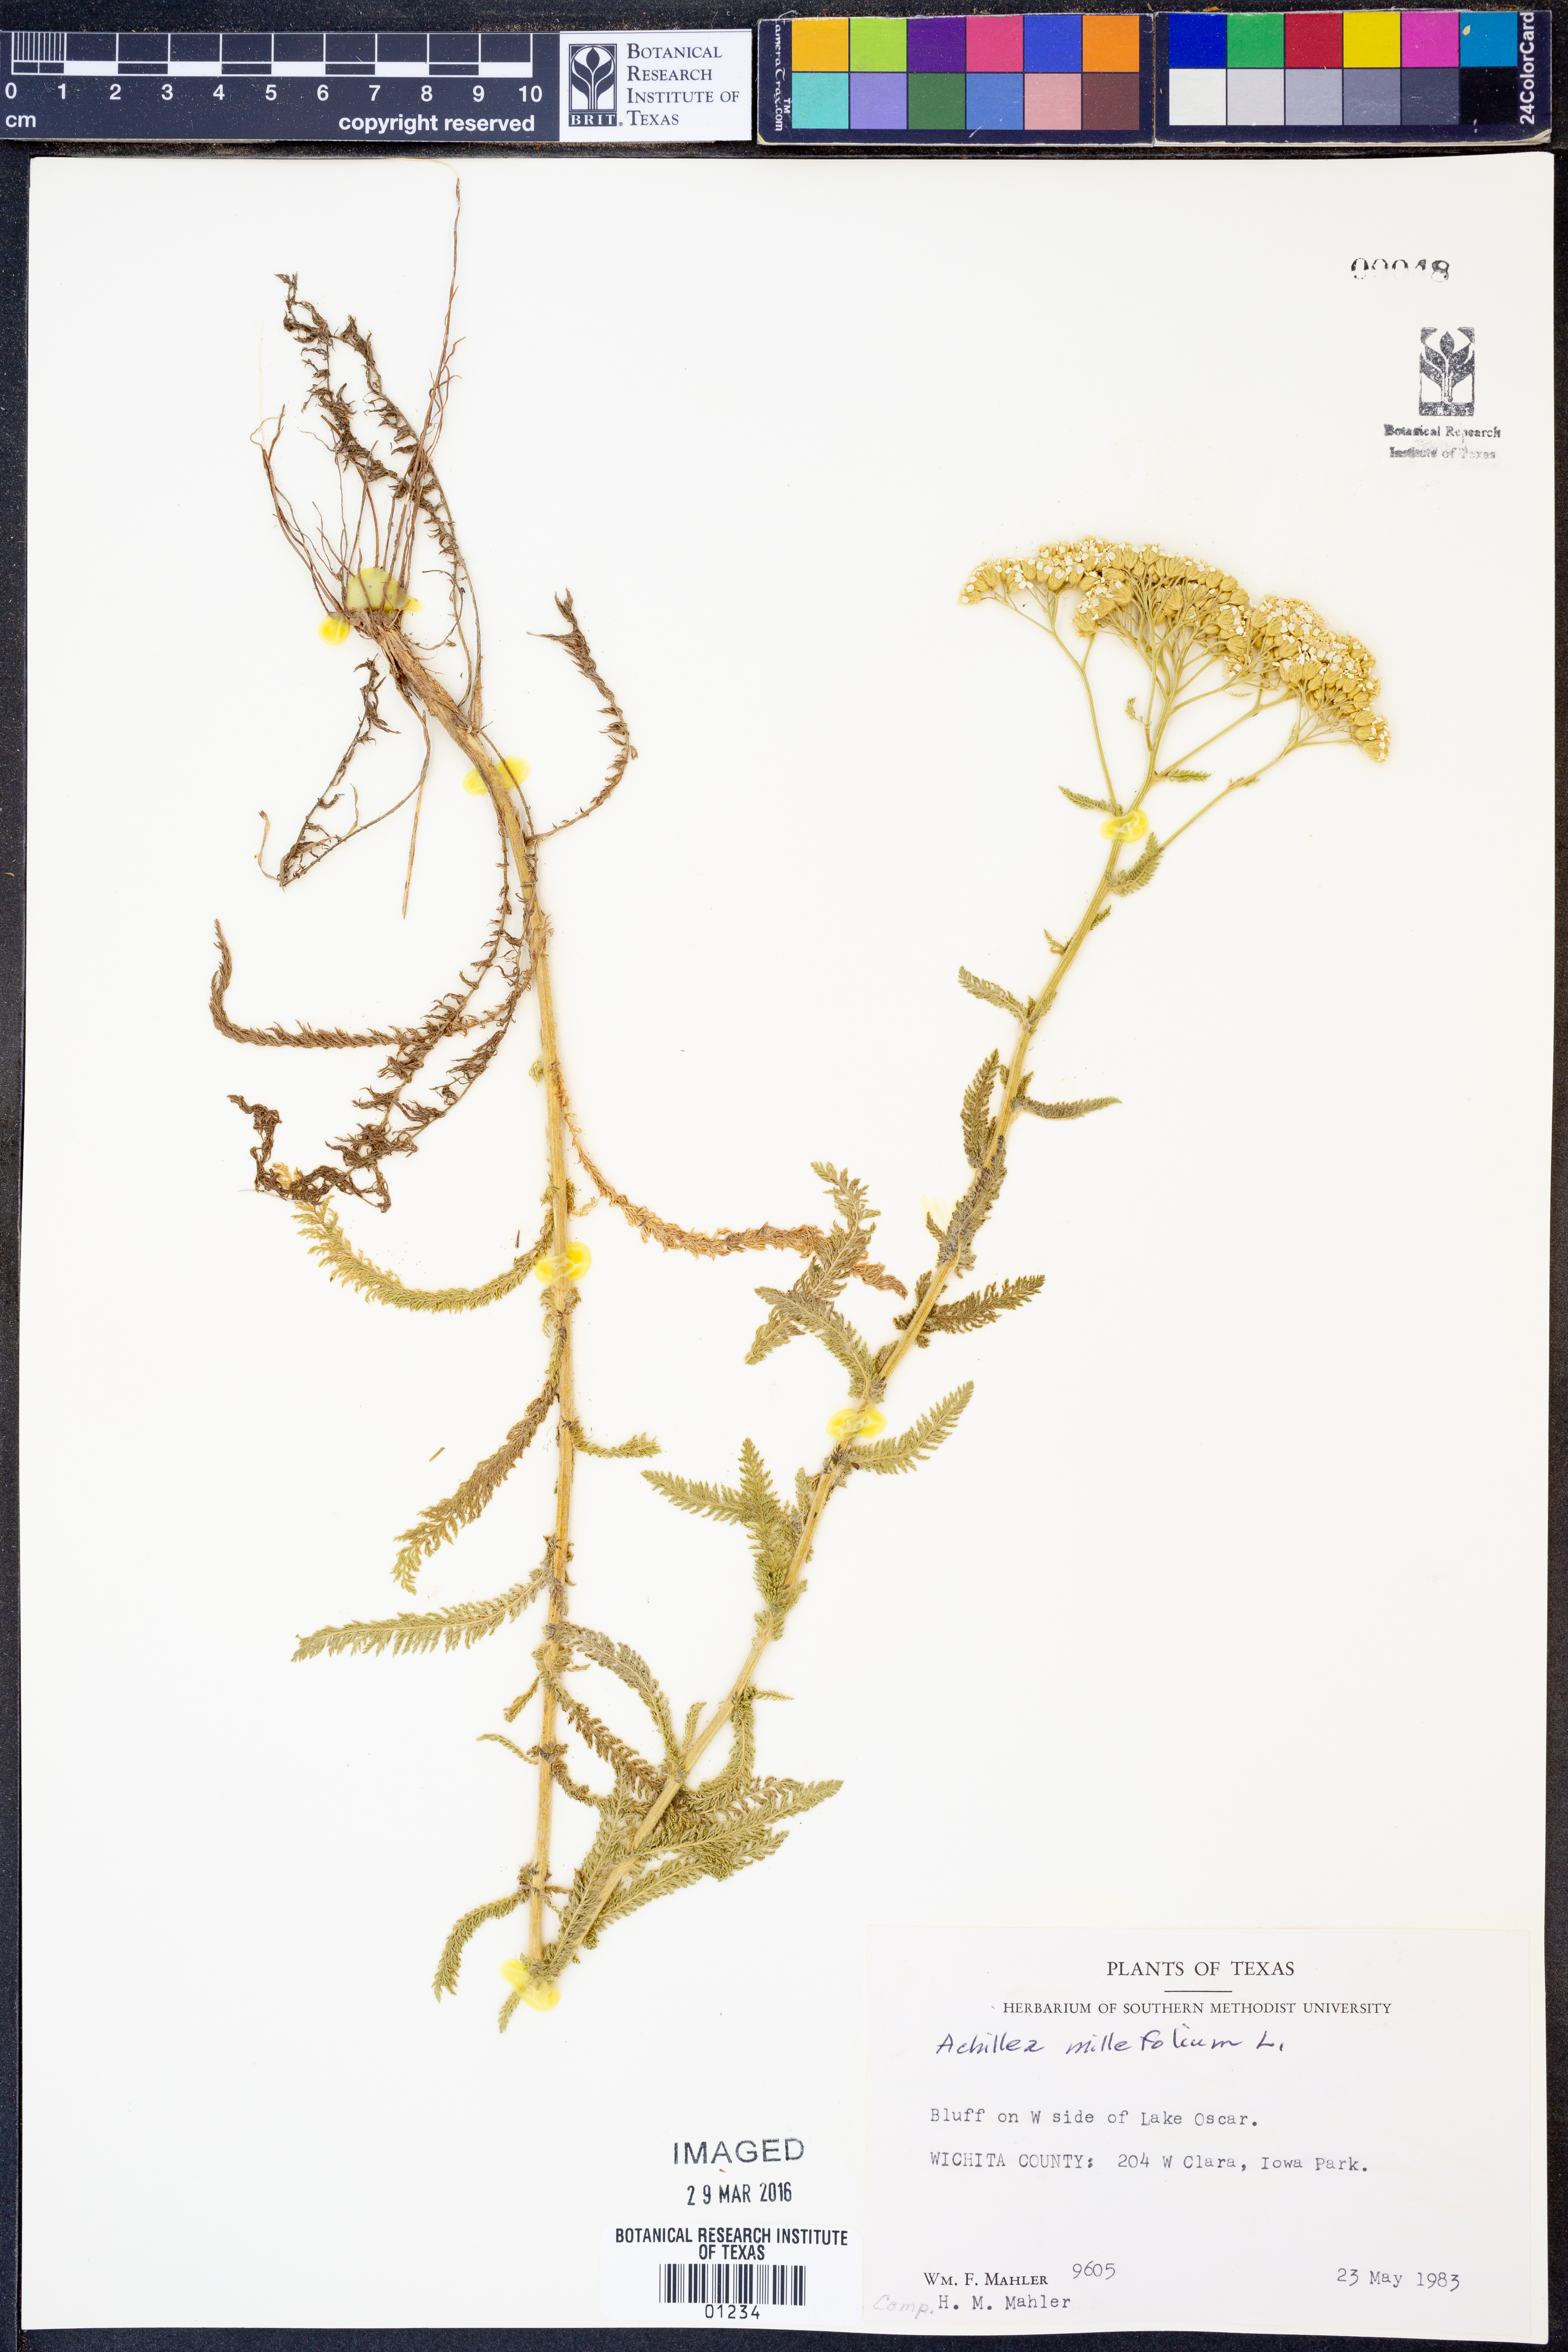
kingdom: Plantae
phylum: Tracheophyta
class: Magnoliopsida
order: Asterales
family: Asteraceae
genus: Achillea
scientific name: Achillea millefolium
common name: Yarrow
